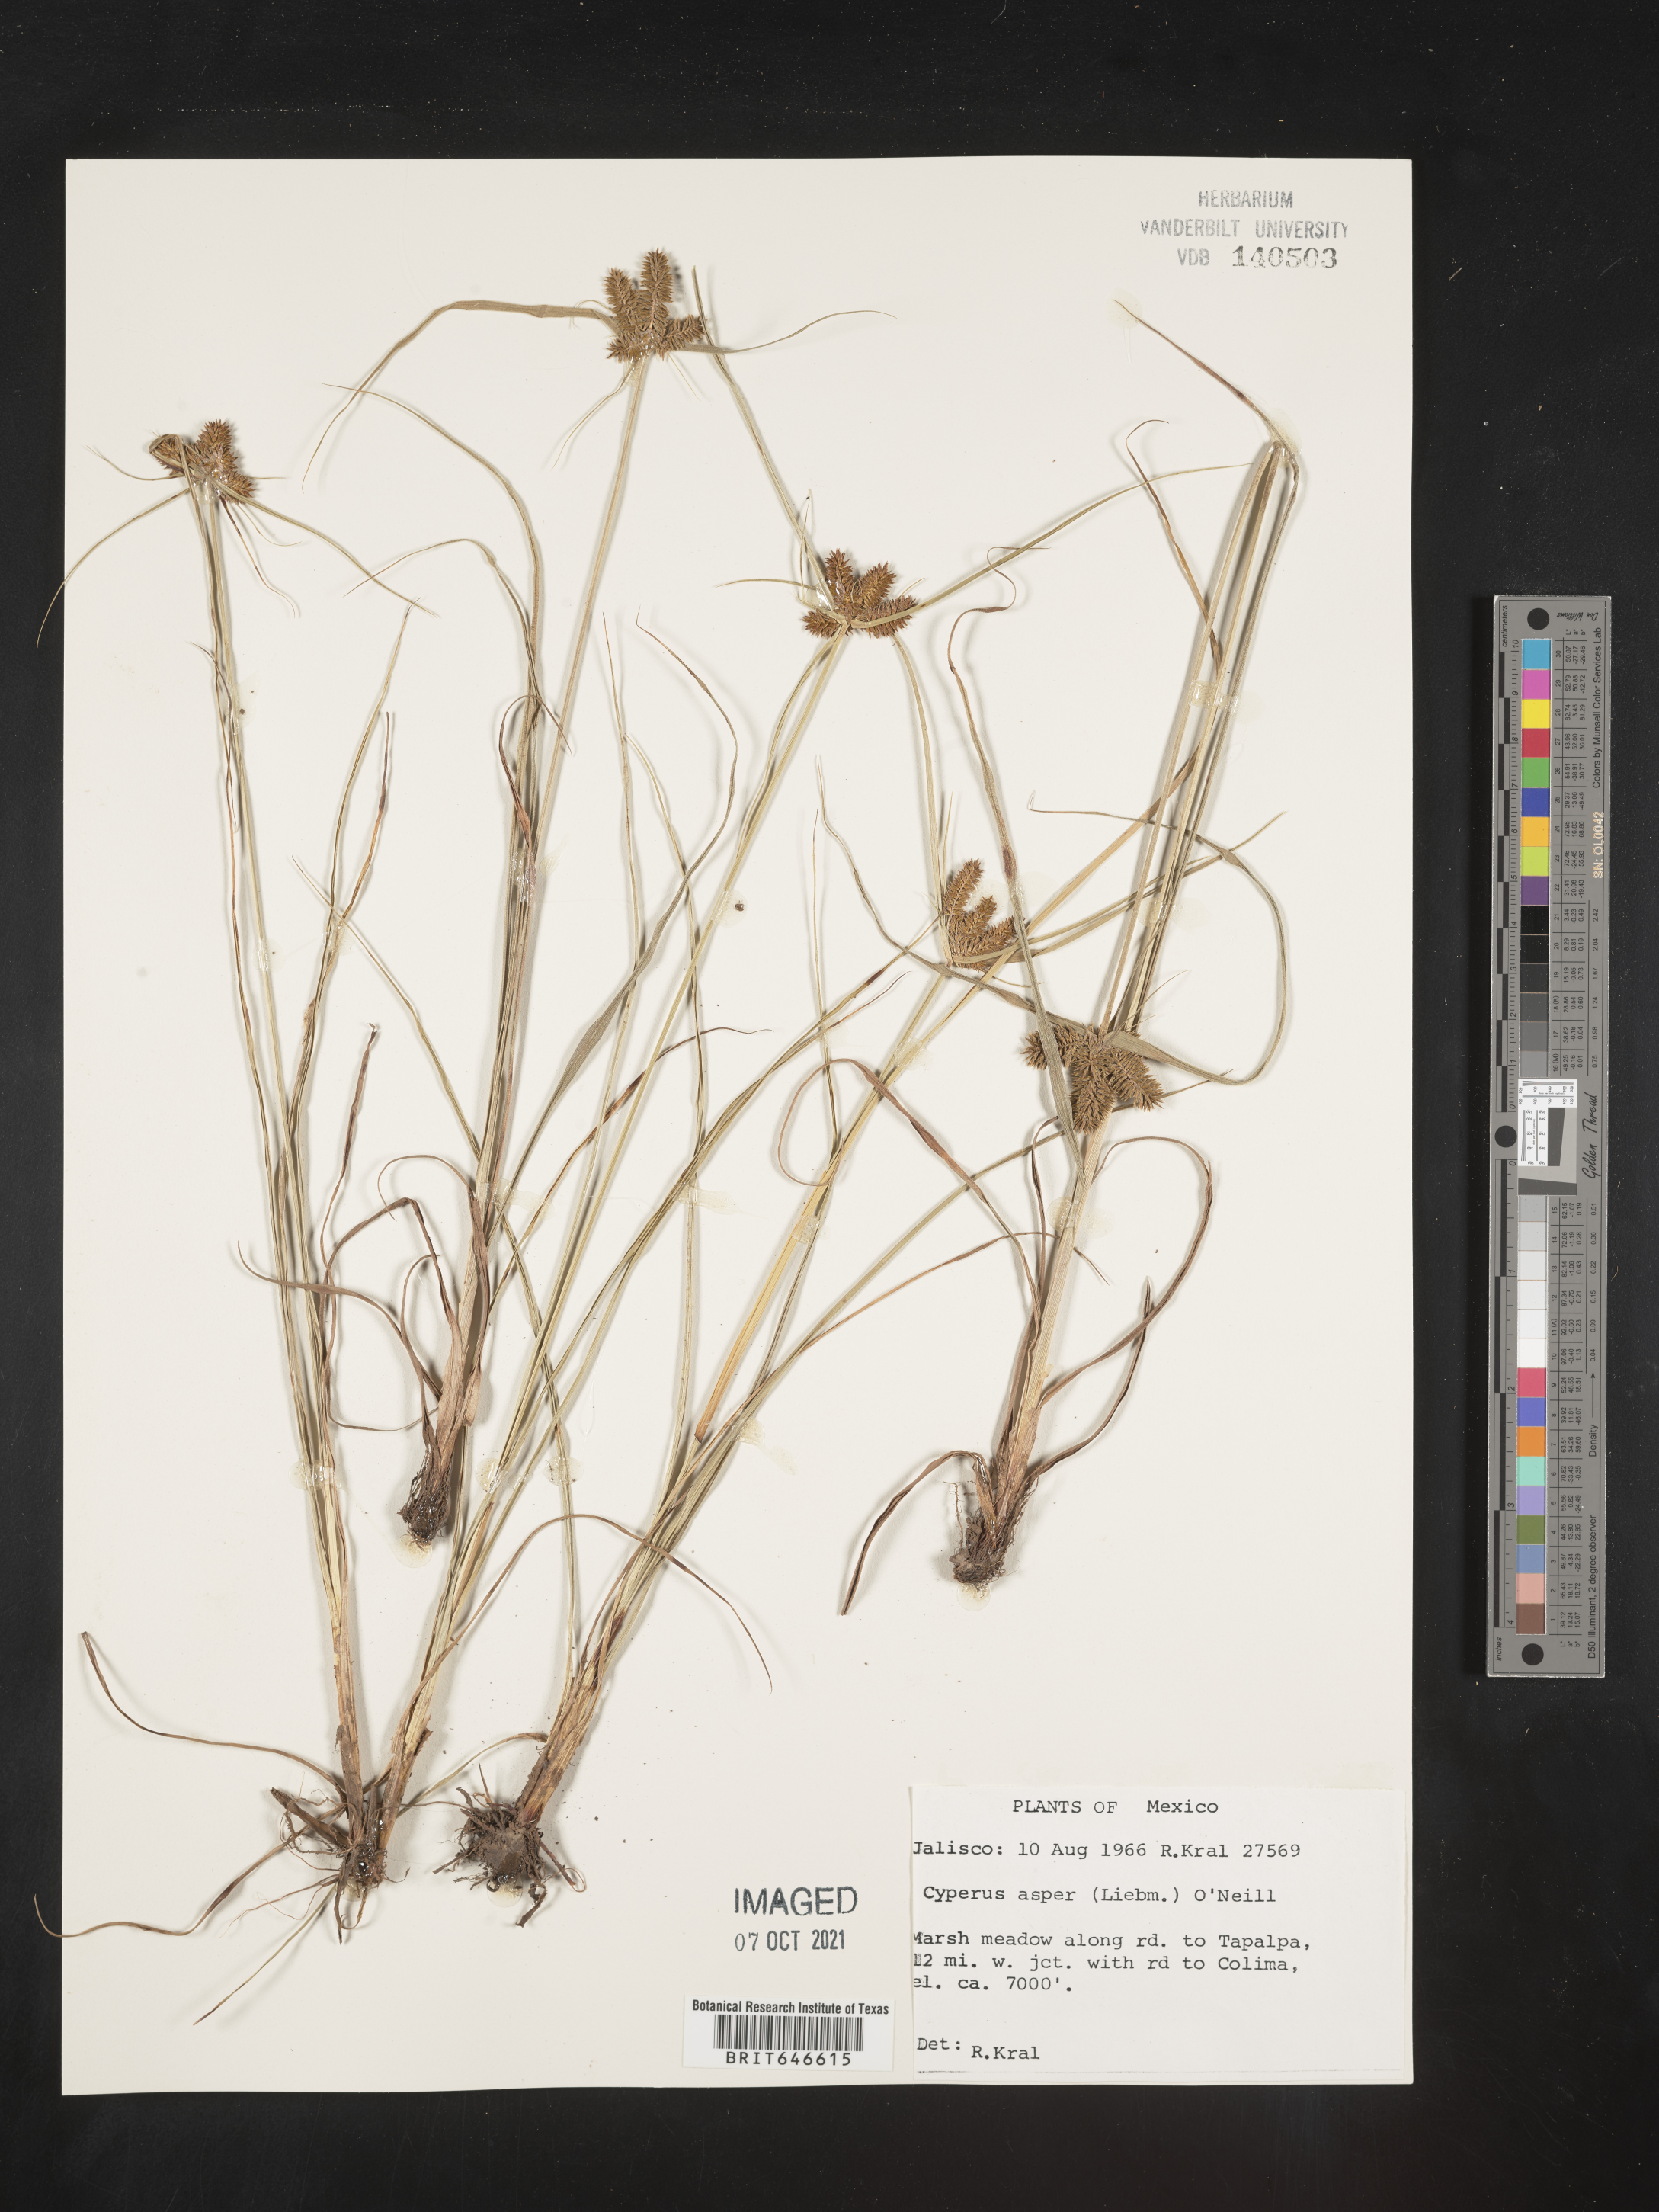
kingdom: Plantae
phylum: Tracheophyta
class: Liliopsida
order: Poales
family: Cyperaceae
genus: Cyperus
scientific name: Cyperus
